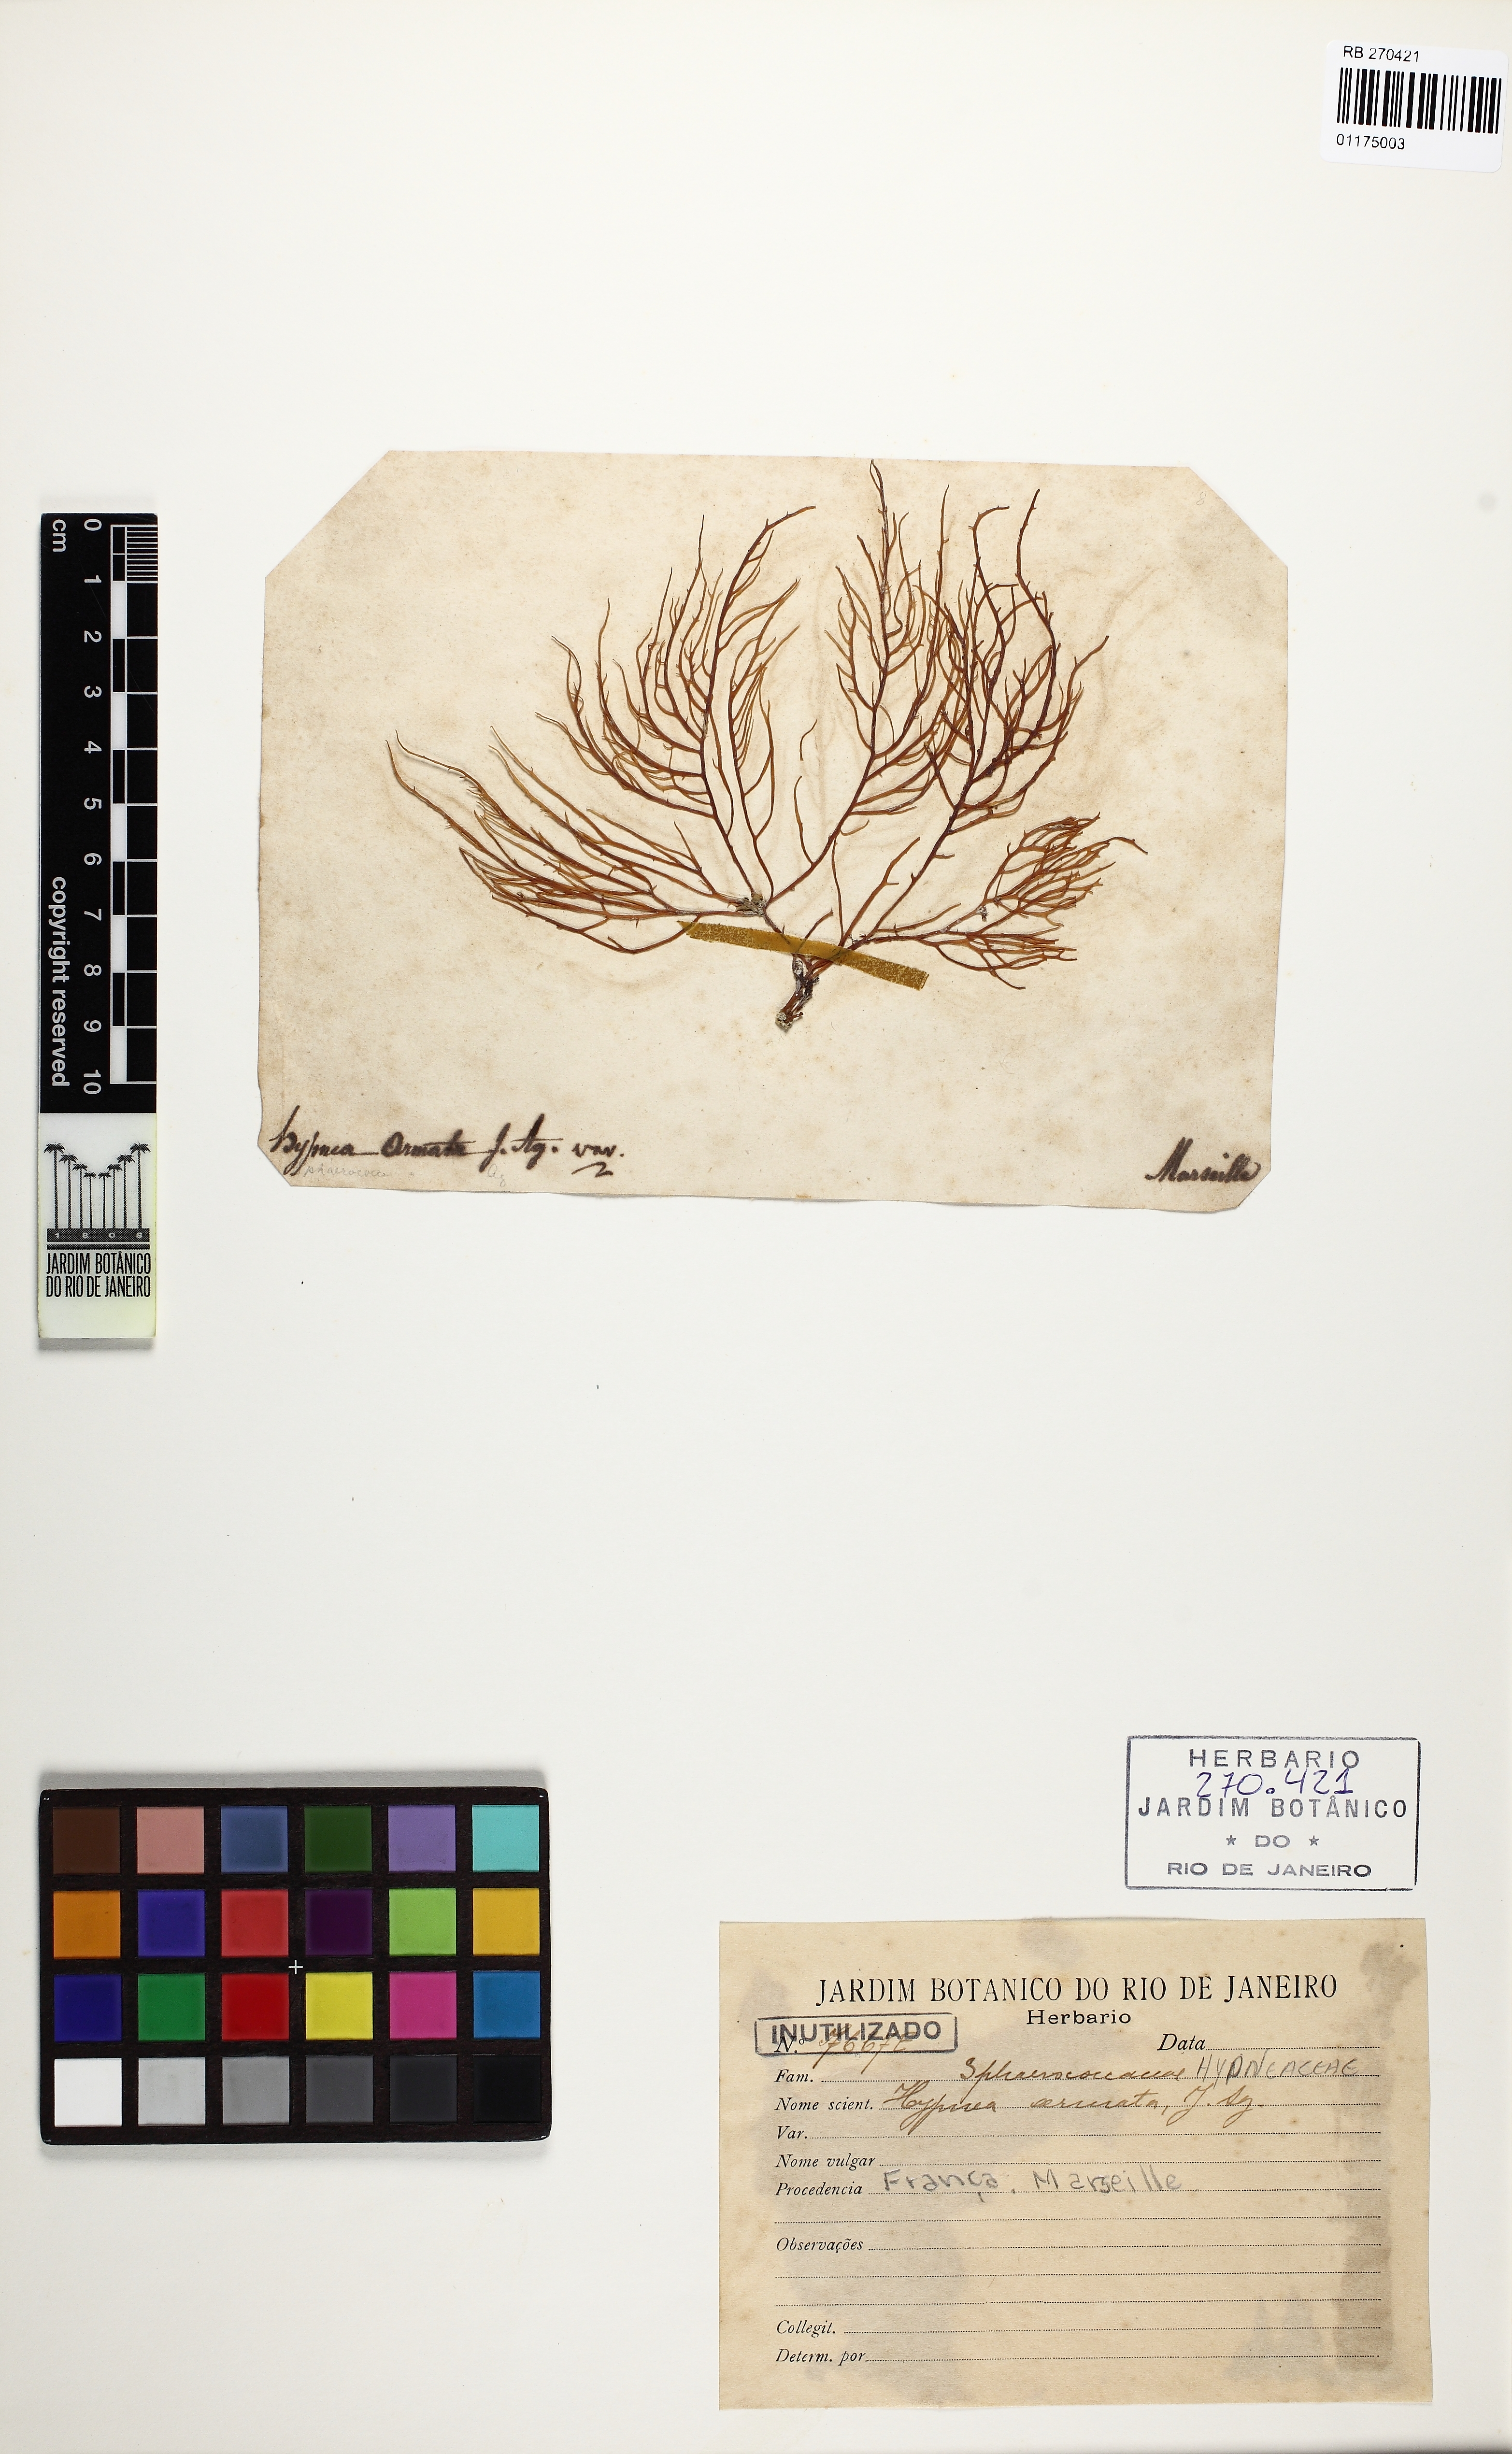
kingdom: Plantae
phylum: Rhodophyta
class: Florideophyceae
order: Gigartinales
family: Cystocloniaceae
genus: Hypnea
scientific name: Hypnea spicifera
